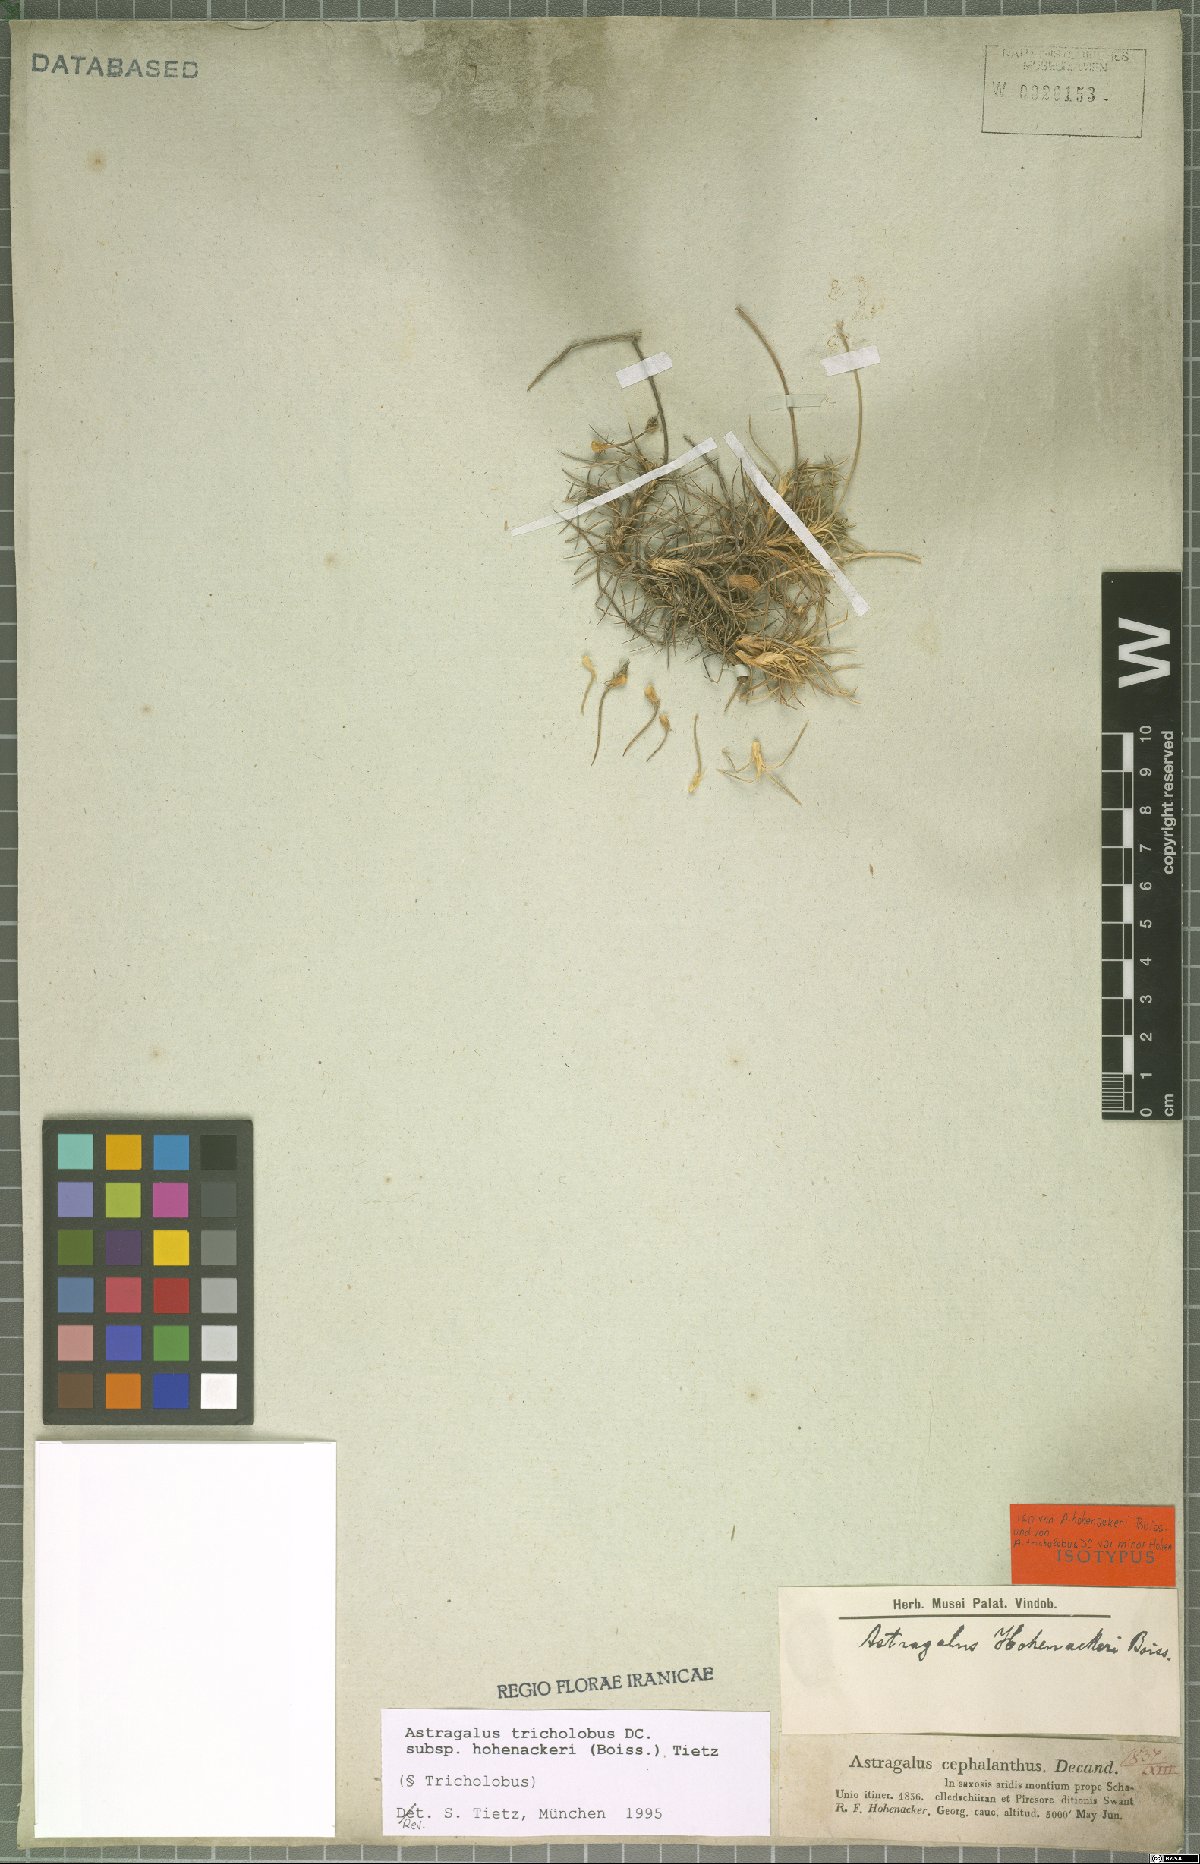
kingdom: Plantae
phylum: Tracheophyta
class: Magnoliopsida
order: Fabales
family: Fabaceae
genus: Astragalus
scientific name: Astragalus hohenackeri
